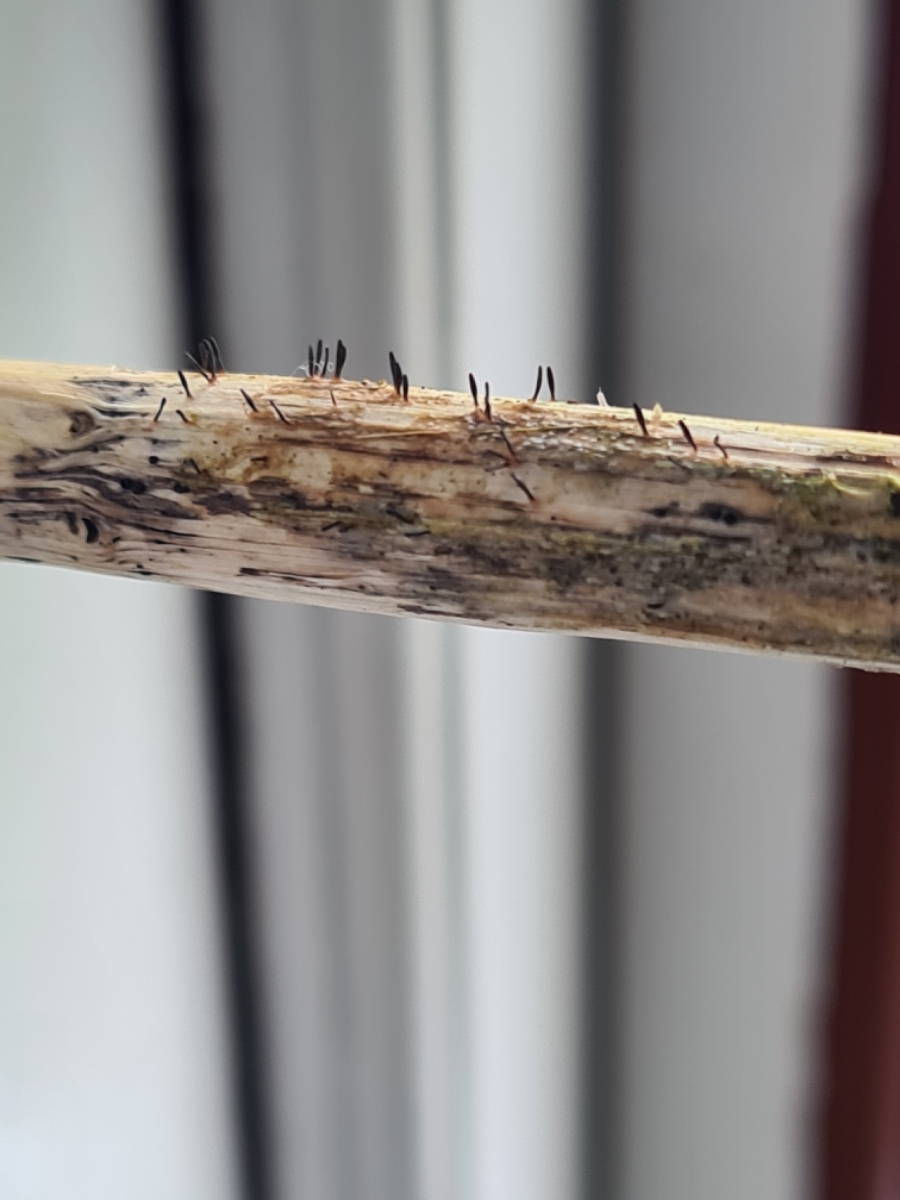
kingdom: Fungi
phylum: Ascomycota
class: Dothideomycetes
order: Acrospermales
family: Acrospermaceae
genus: Acrospermum
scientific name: Acrospermum compressum
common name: nælde-stængeltunge
